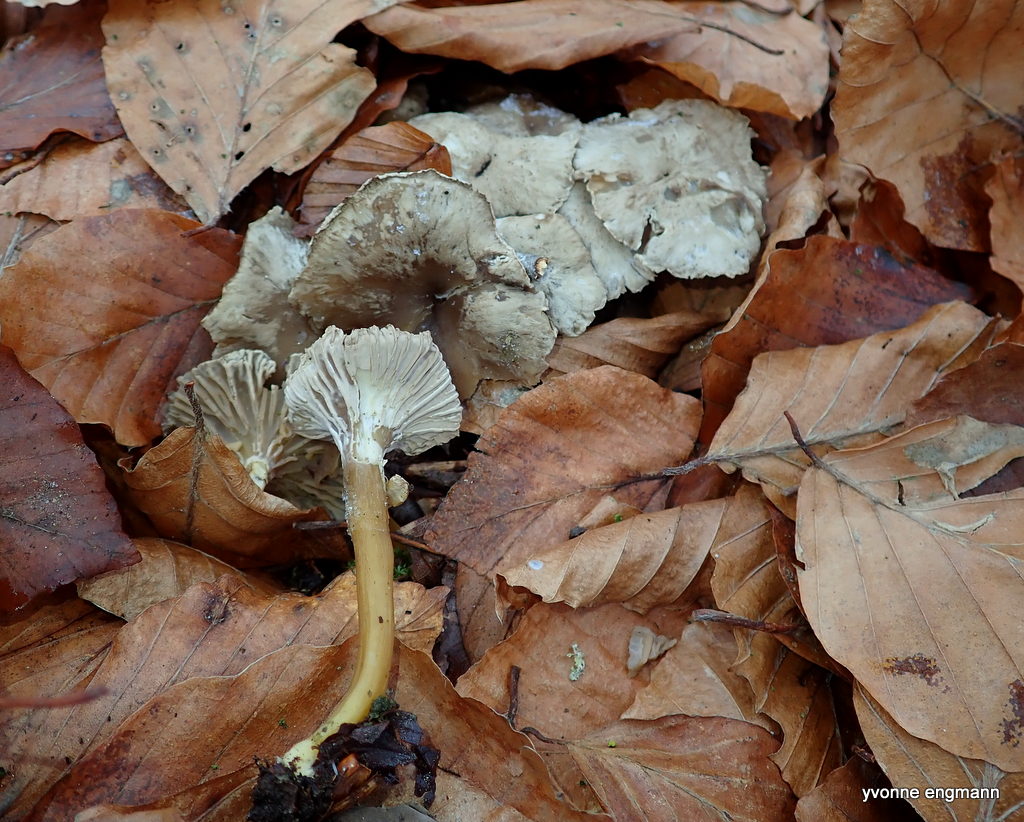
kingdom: Fungi
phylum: Basidiomycota
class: Agaricomycetes
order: Cantharellales
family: Hydnaceae
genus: Craterellus
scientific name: Craterellus tubaeformis
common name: tragt-kantarel
